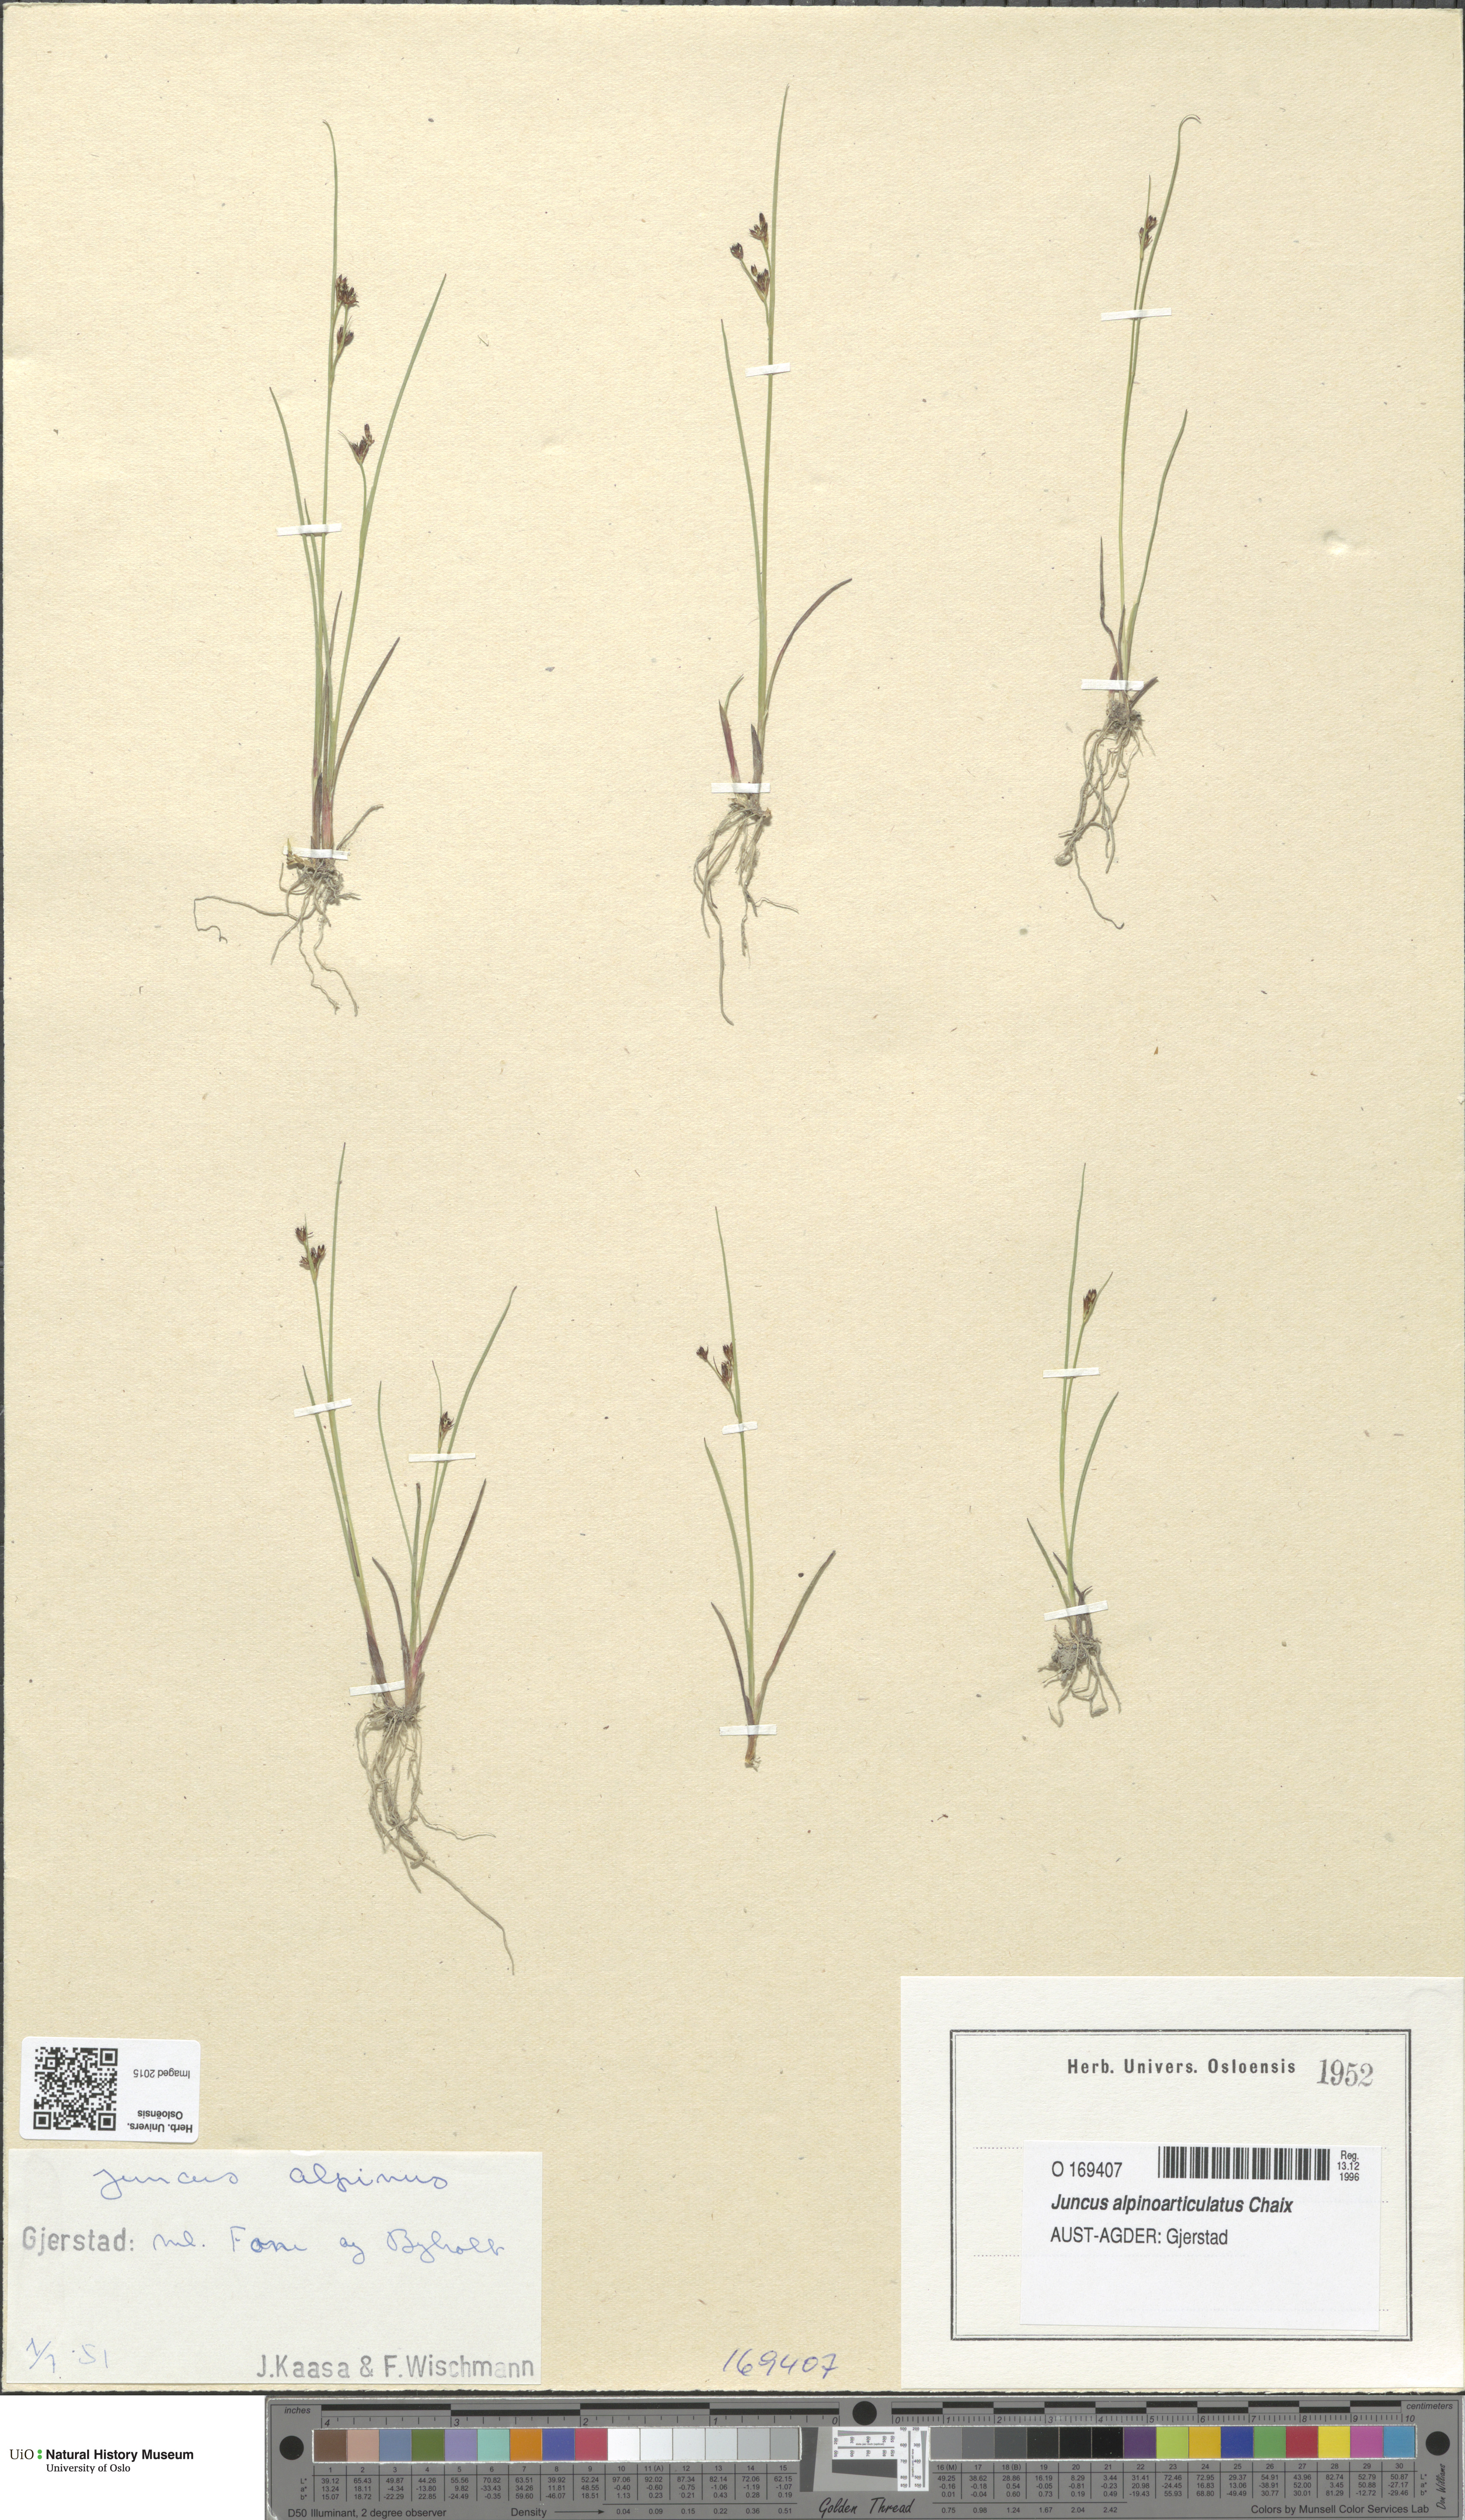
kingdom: Plantae
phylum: Tracheophyta
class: Liliopsida
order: Poales
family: Juncaceae
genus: Juncus
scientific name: Juncus alpinoarticulatus
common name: Alpine rush
